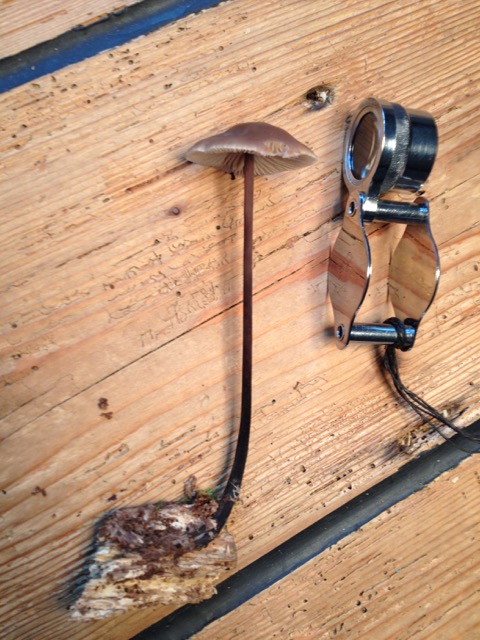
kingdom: Fungi
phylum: Basidiomycota
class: Agaricomycetes
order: Agaricales
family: Omphalotaceae
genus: Mycetinis
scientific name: Mycetinis alliaceus
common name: stor løghat
